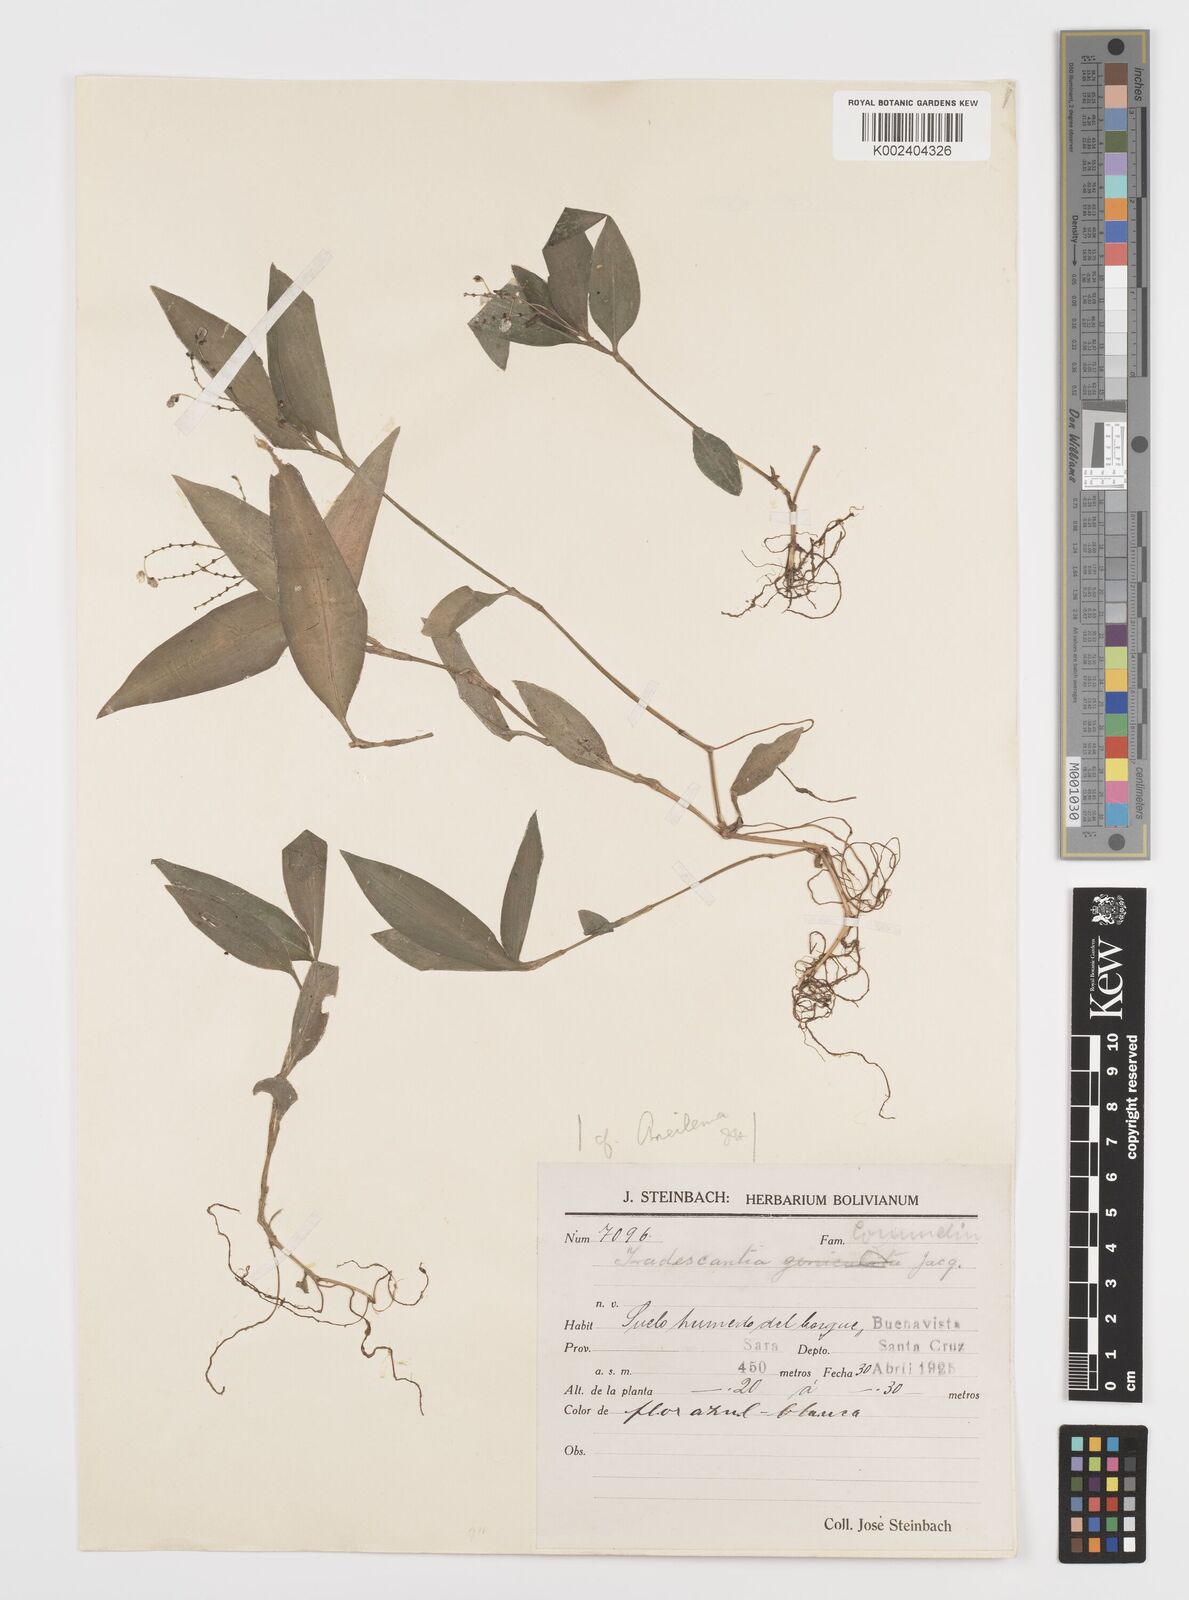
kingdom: Plantae
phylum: Tracheophyta
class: Liliopsida
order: Commelinales
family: Commelinaceae
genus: Aneilema
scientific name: Aneilema umbrosum
